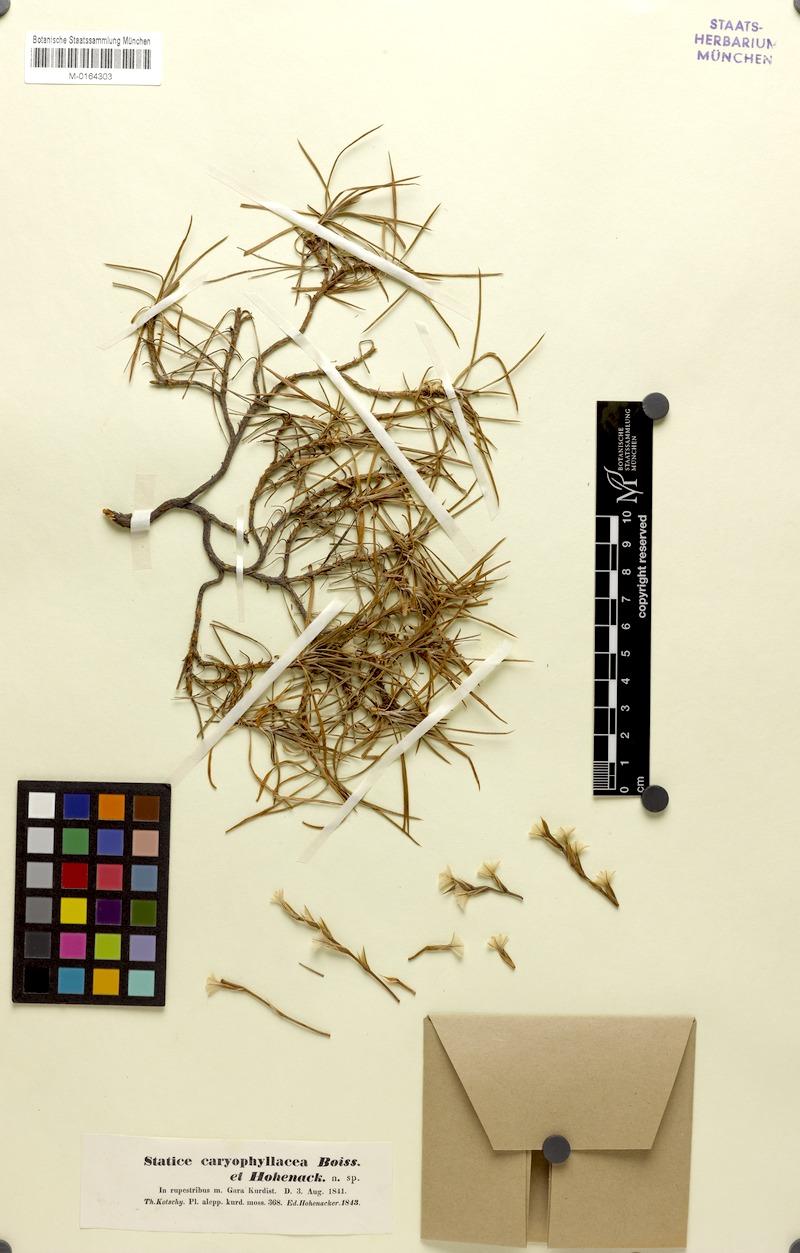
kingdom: Plantae
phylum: Tracheophyta
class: Magnoliopsida
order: Caryophyllales
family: Plumbaginaceae
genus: Acantholimon
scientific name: Acantholimon caryophyllaceum
